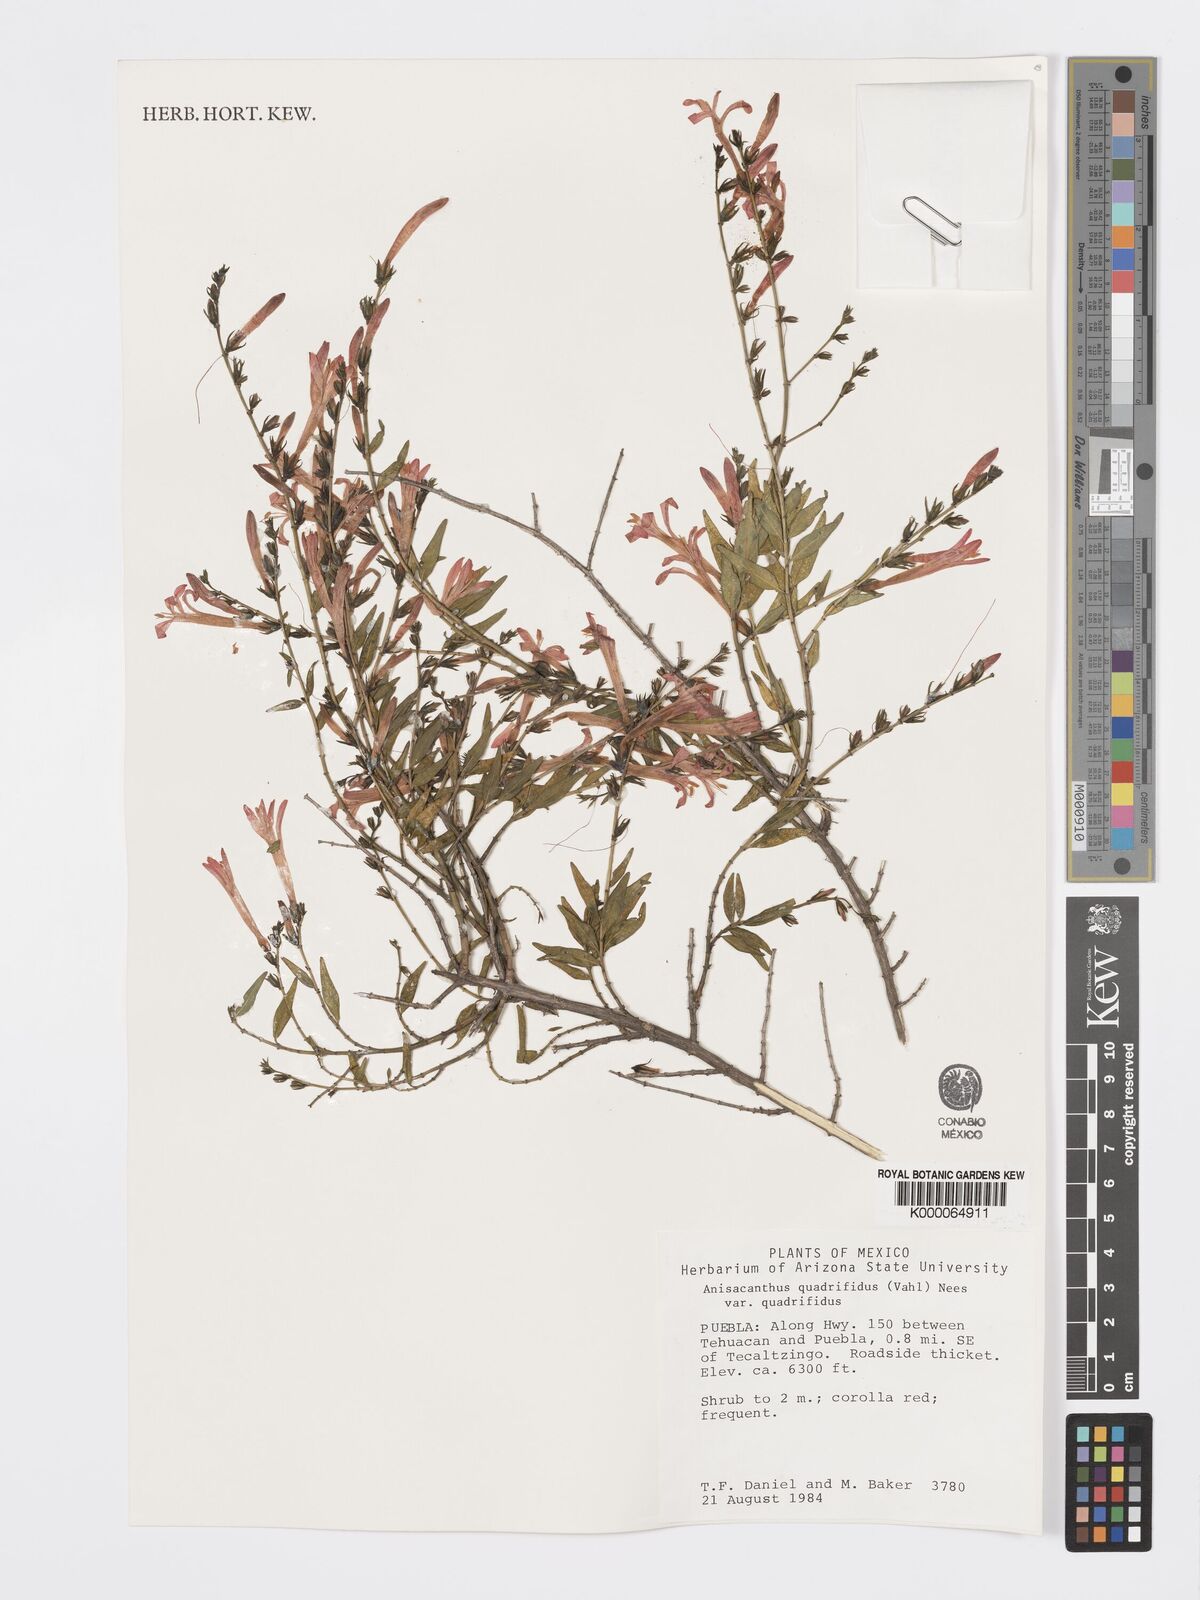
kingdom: Plantae
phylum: Tracheophyta
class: Magnoliopsida
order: Lamiales
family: Acanthaceae
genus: Anisacanthus
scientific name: Anisacanthus quadrifidus
